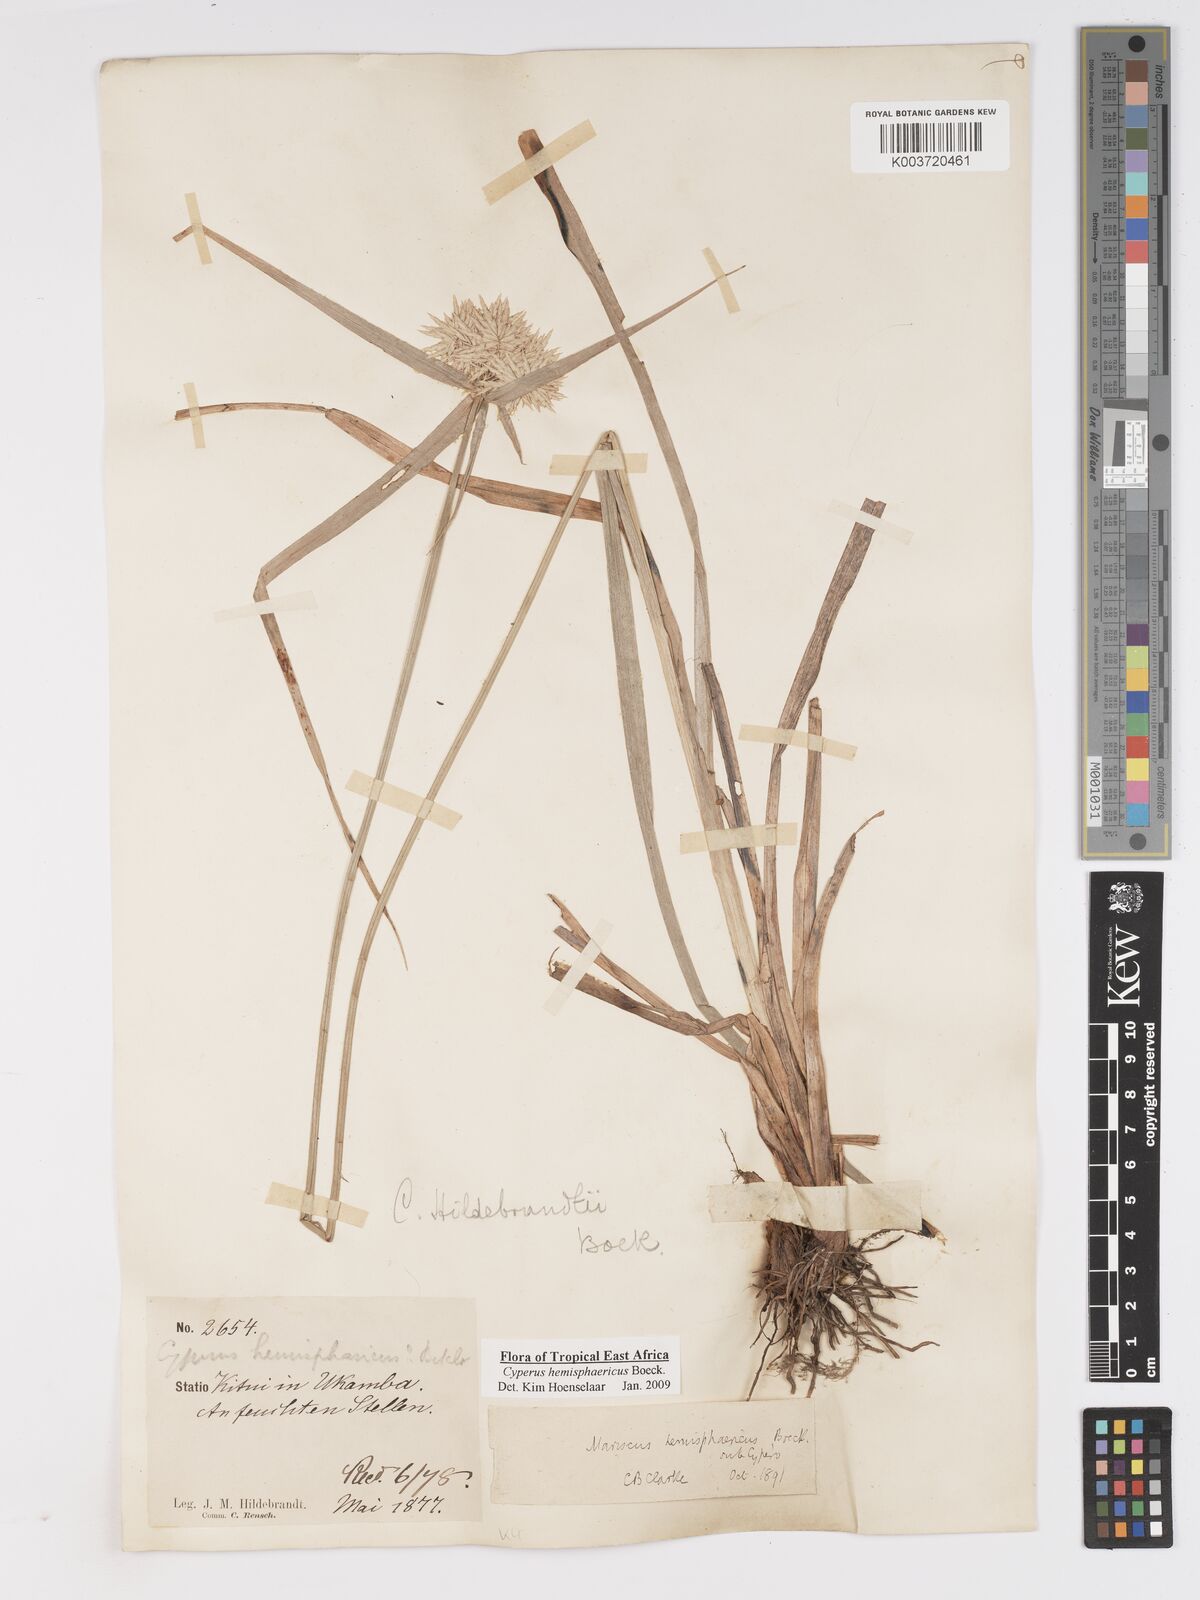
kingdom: Plantae
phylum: Tracheophyta
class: Liliopsida
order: Poales
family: Cyperaceae
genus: Cyperus
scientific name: Cyperus hemisphaericus
